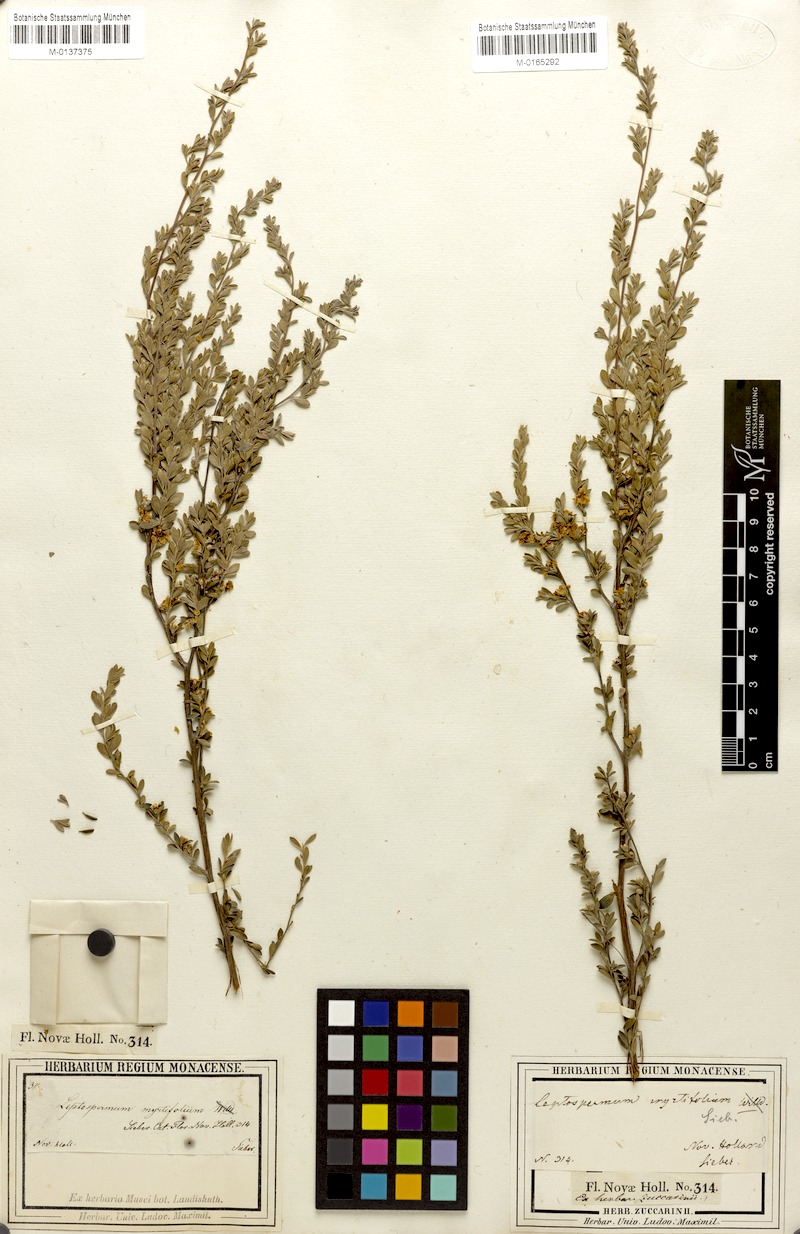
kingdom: Plantae
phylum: Tracheophyta
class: Magnoliopsida
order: Myrtales
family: Myrtaceae
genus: Leptospermum
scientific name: Leptospermum myrtifolium
